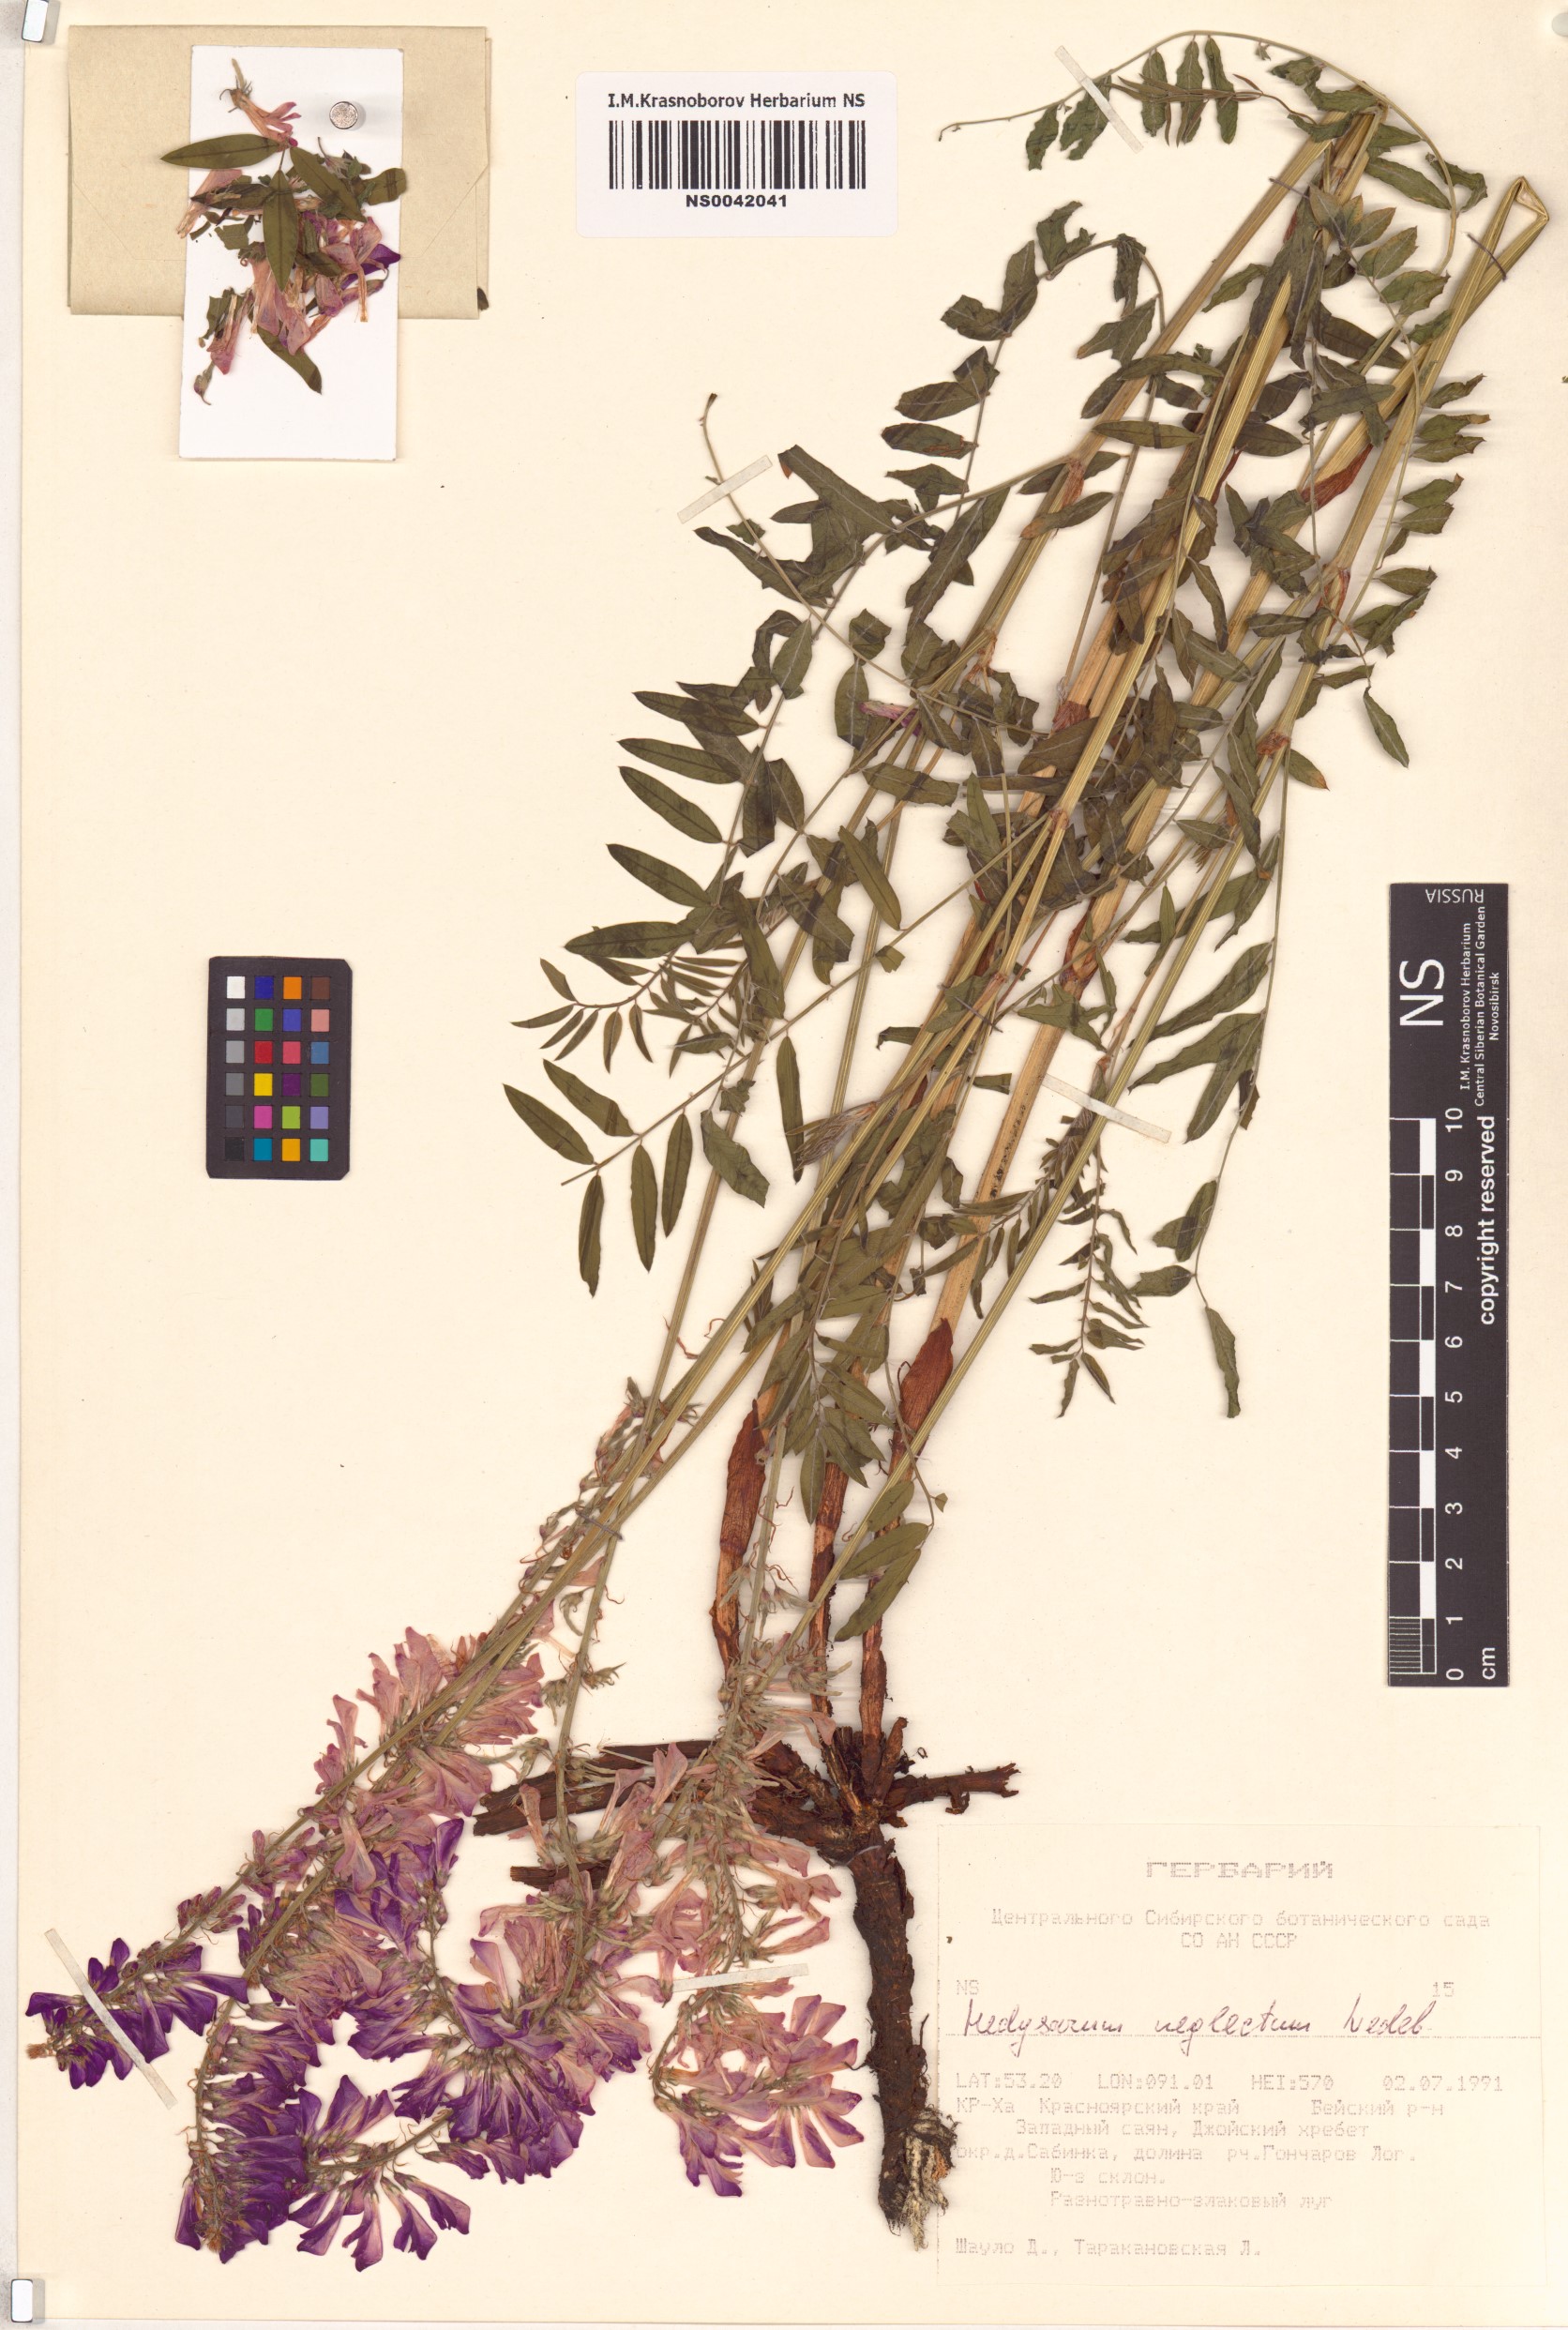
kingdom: Plantae
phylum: Tracheophyta
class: Magnoliopsida
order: Fabales
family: Fabaceae
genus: Hedysarum
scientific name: Hedysarum neglectum
